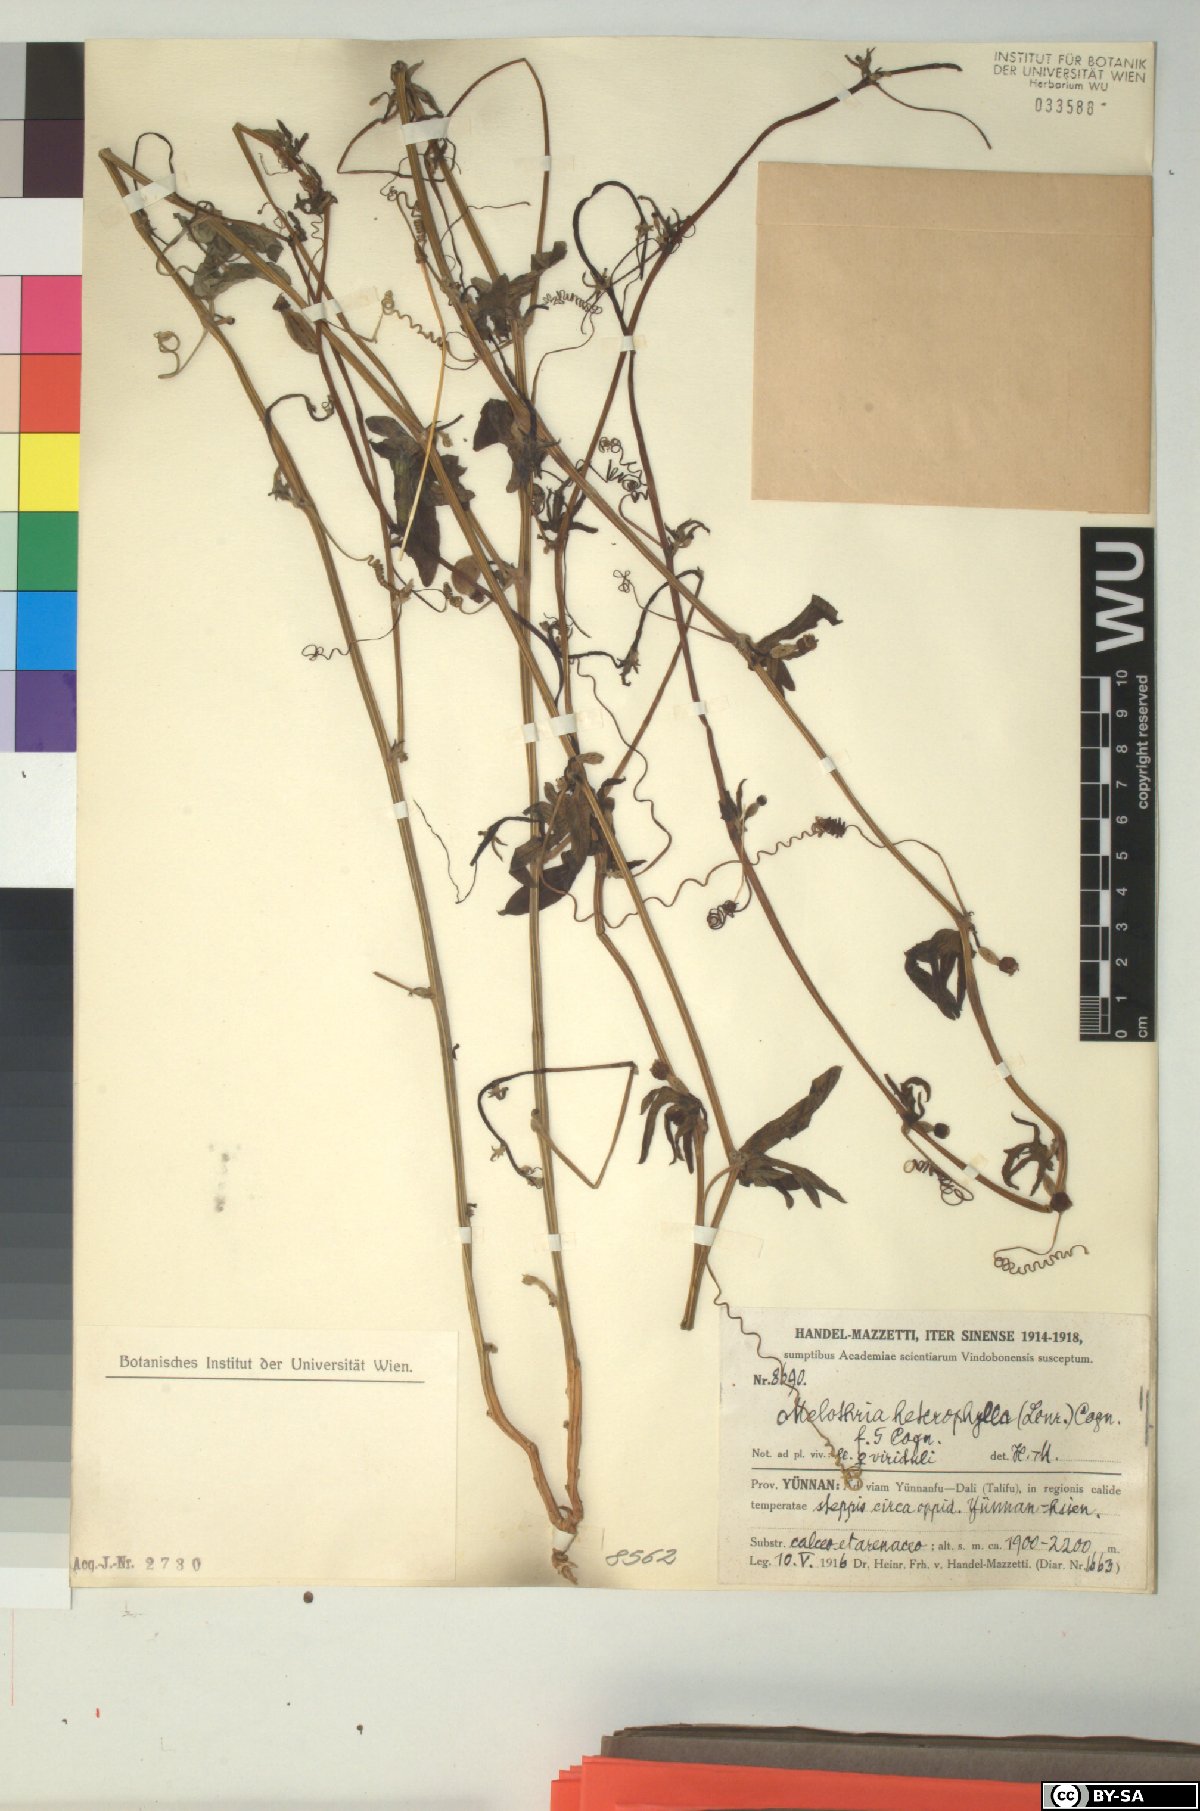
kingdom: Plantae
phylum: Tracheophyta
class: Magnoliopsida
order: Cucurbitales
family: Cucurbitaceae
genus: Melothria
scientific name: Melothria trilobata
